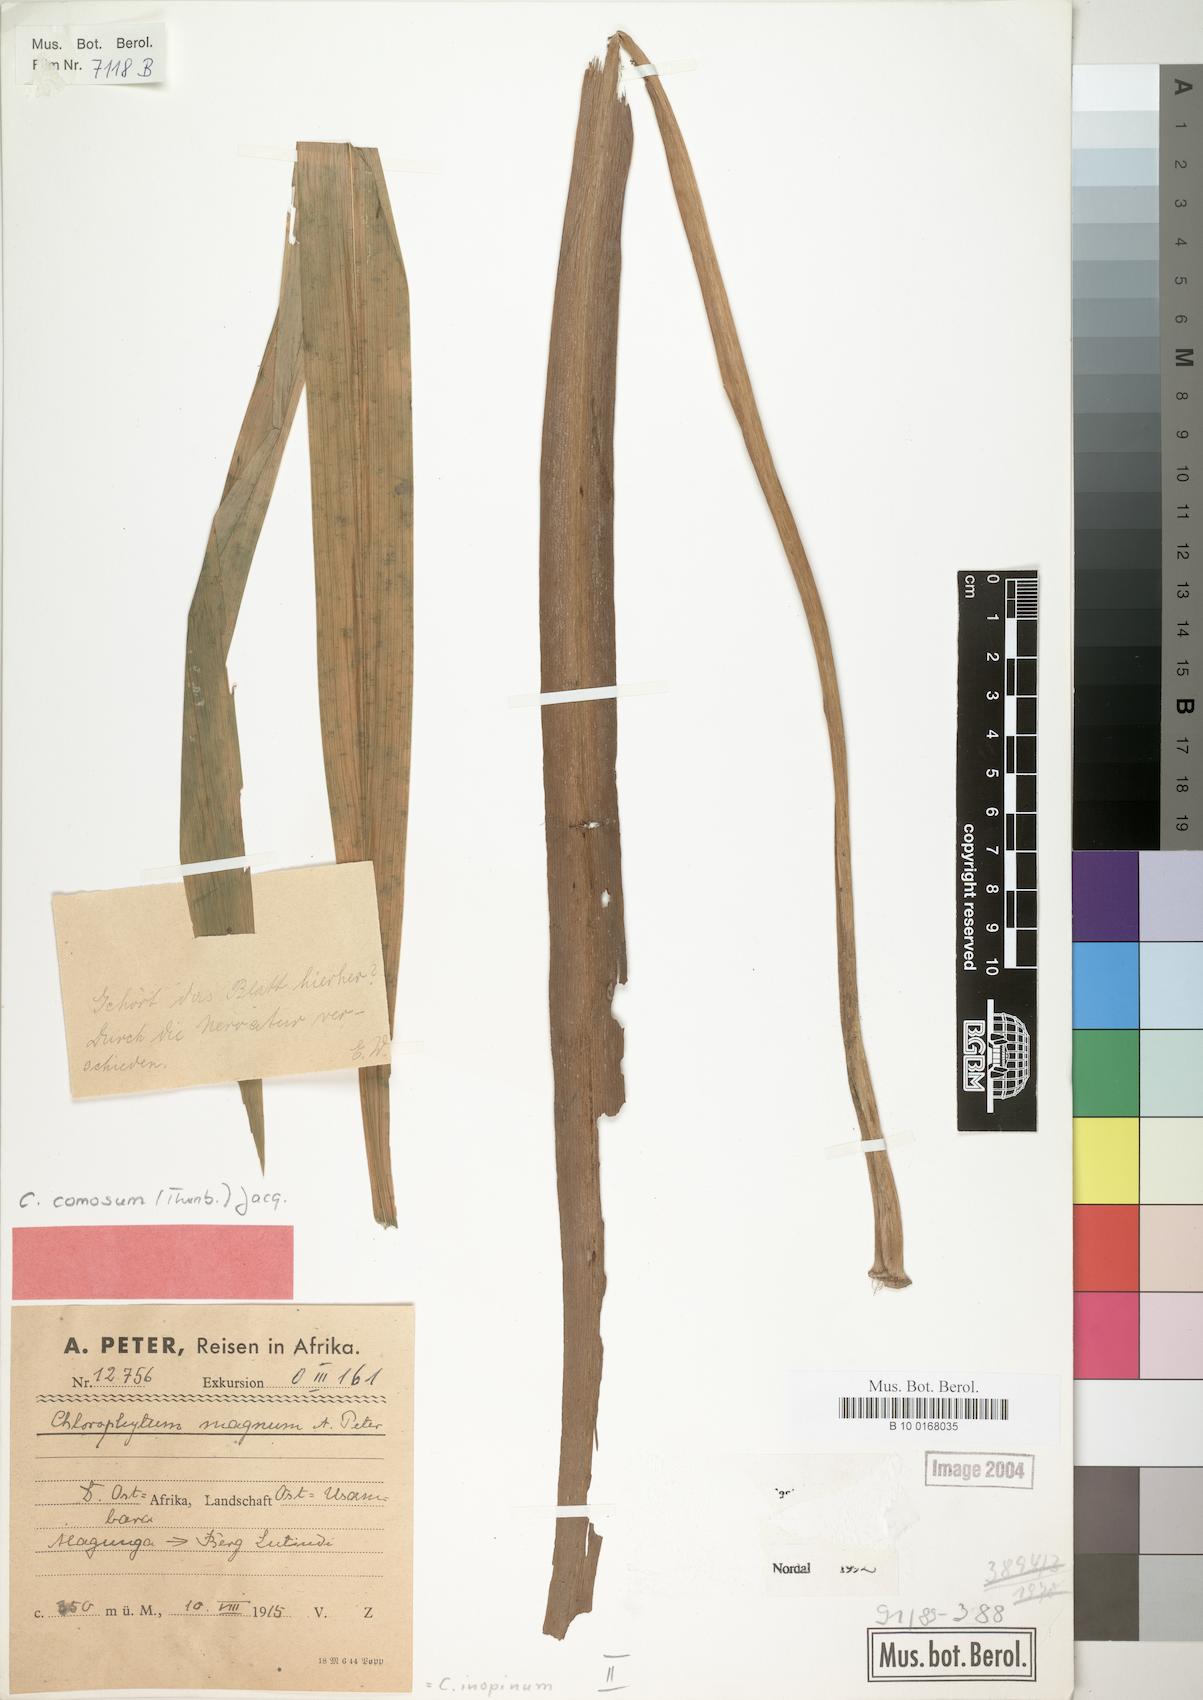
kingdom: Plantae
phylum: Tracheophyta
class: Liliopsida
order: Asparagales
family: Asparagaceae
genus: Chlorophytum
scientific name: Chlorophytum comosum
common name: Spider plant
